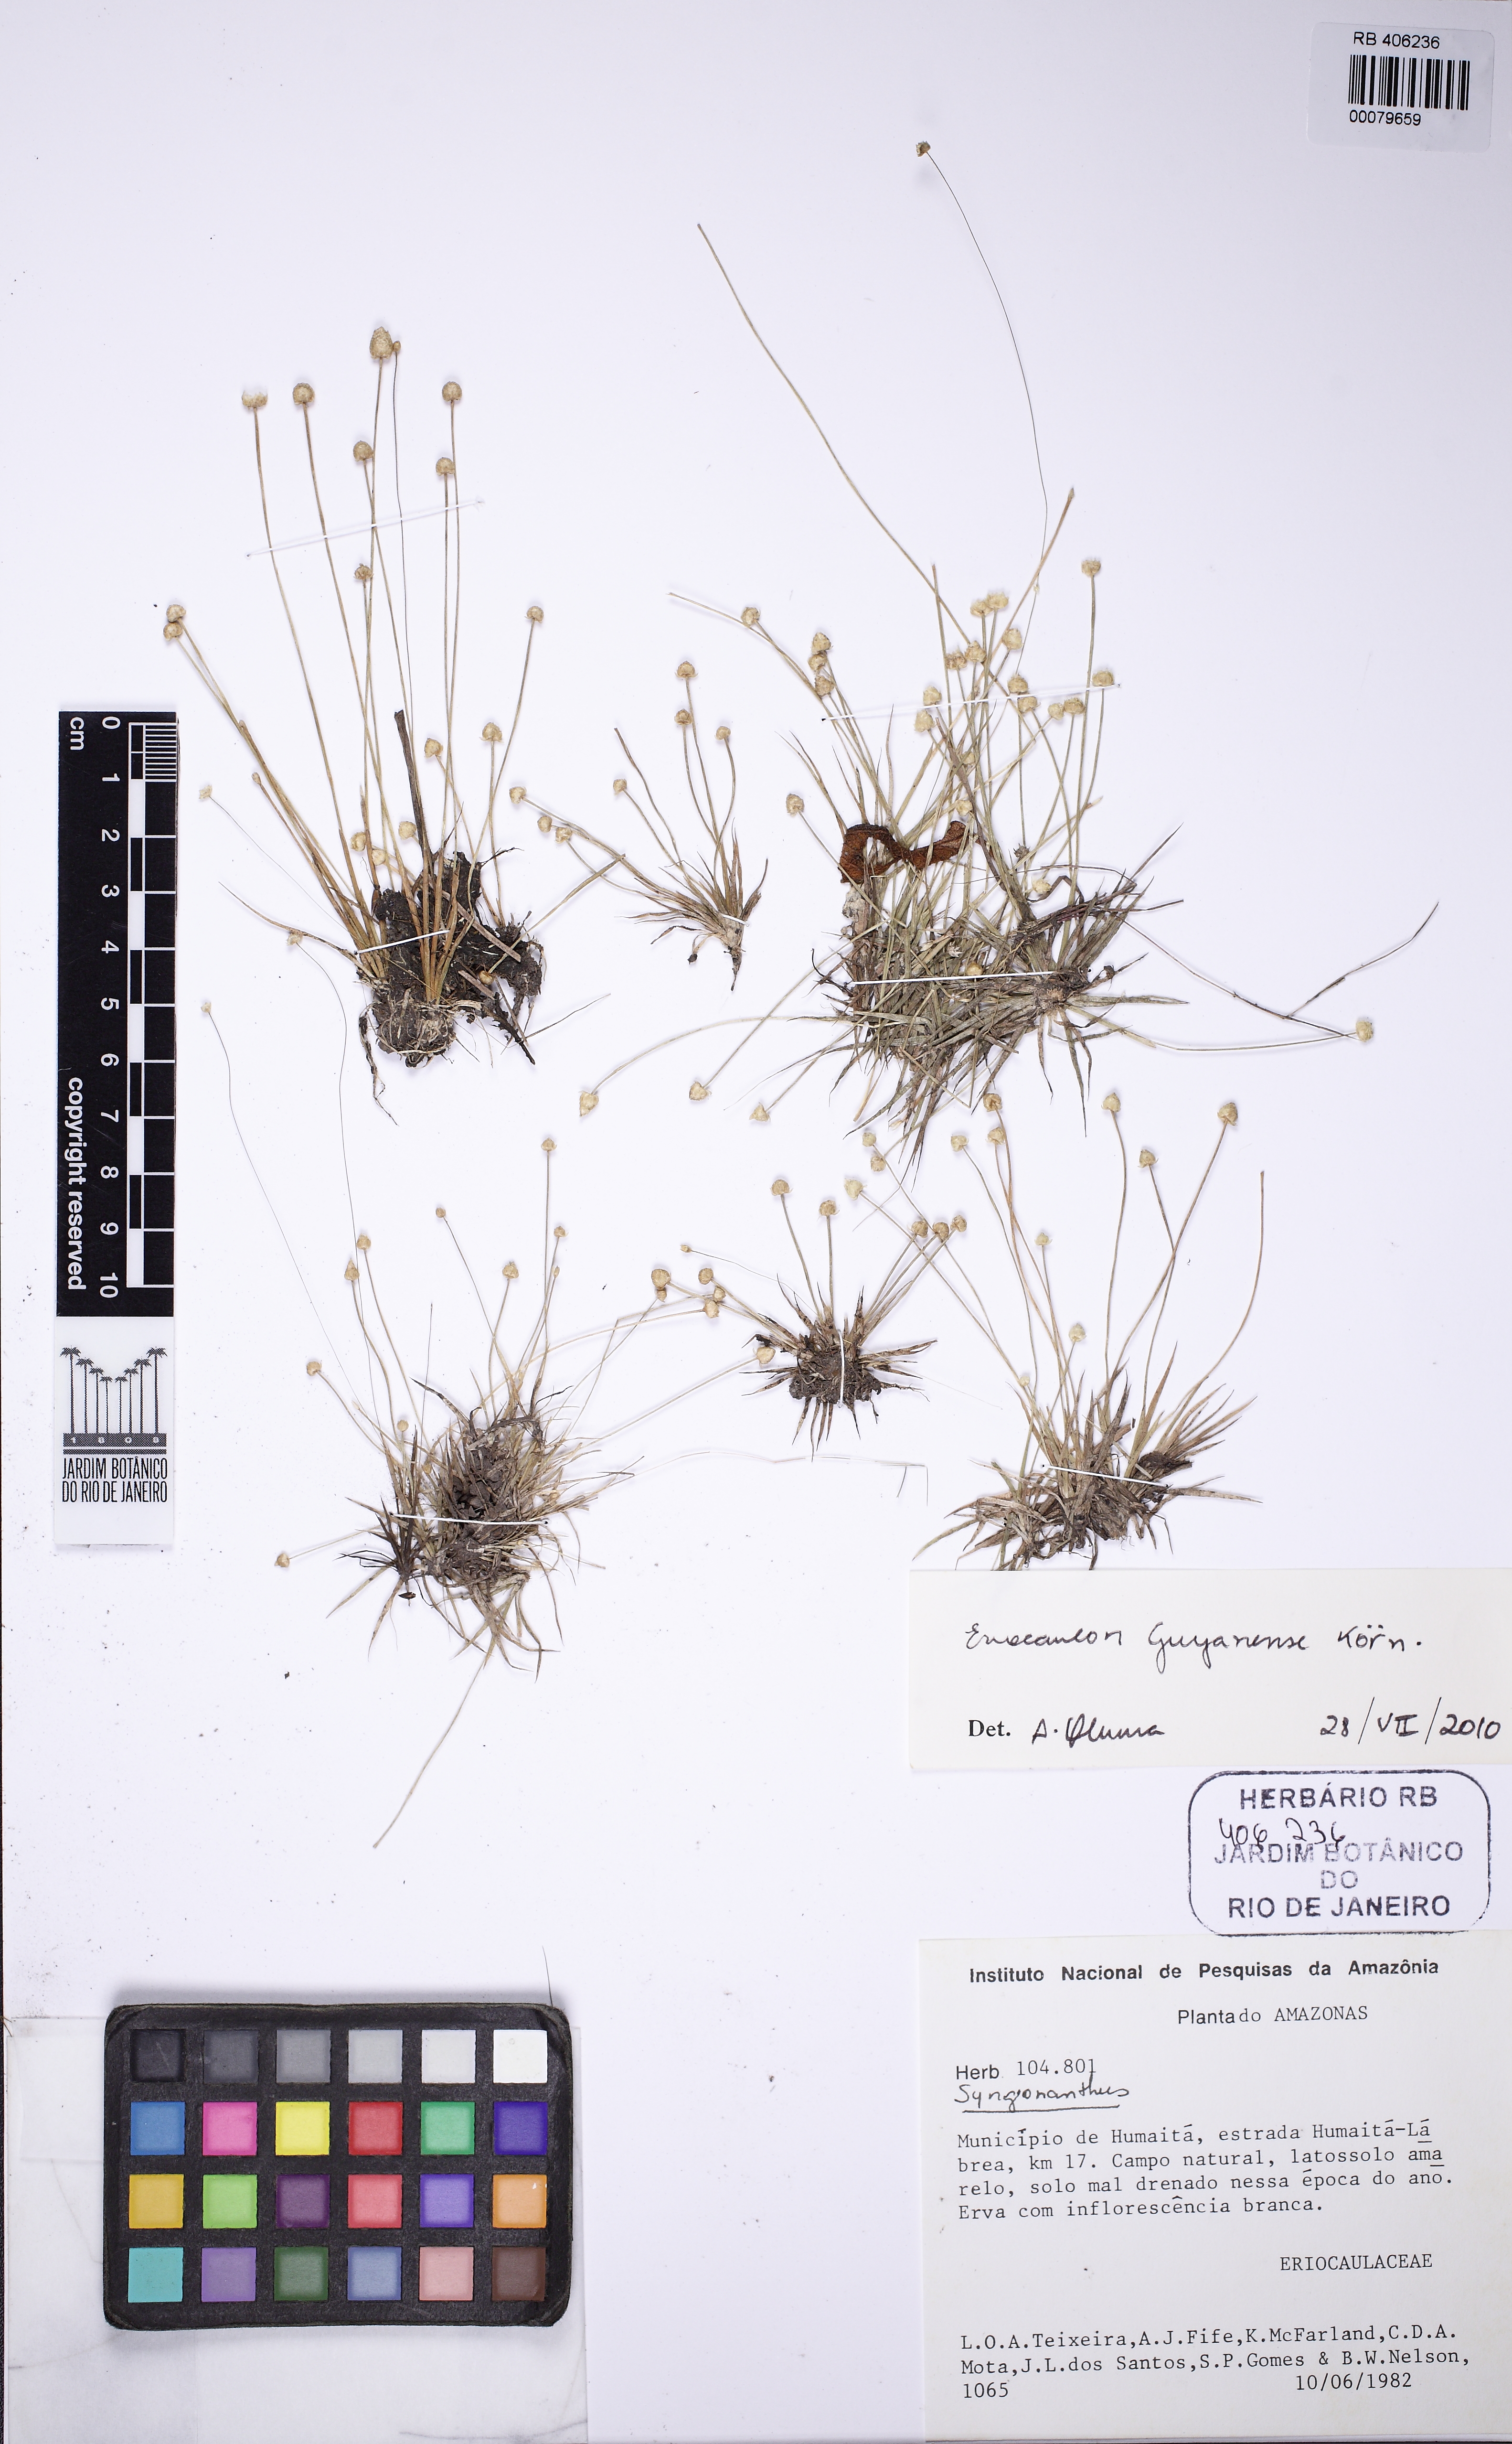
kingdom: Plantae
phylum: Tracheophyta
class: Liliopsida
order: Poales
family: Eriocaulaceae
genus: Eriocaulon
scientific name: Eriocaulon guyanense
